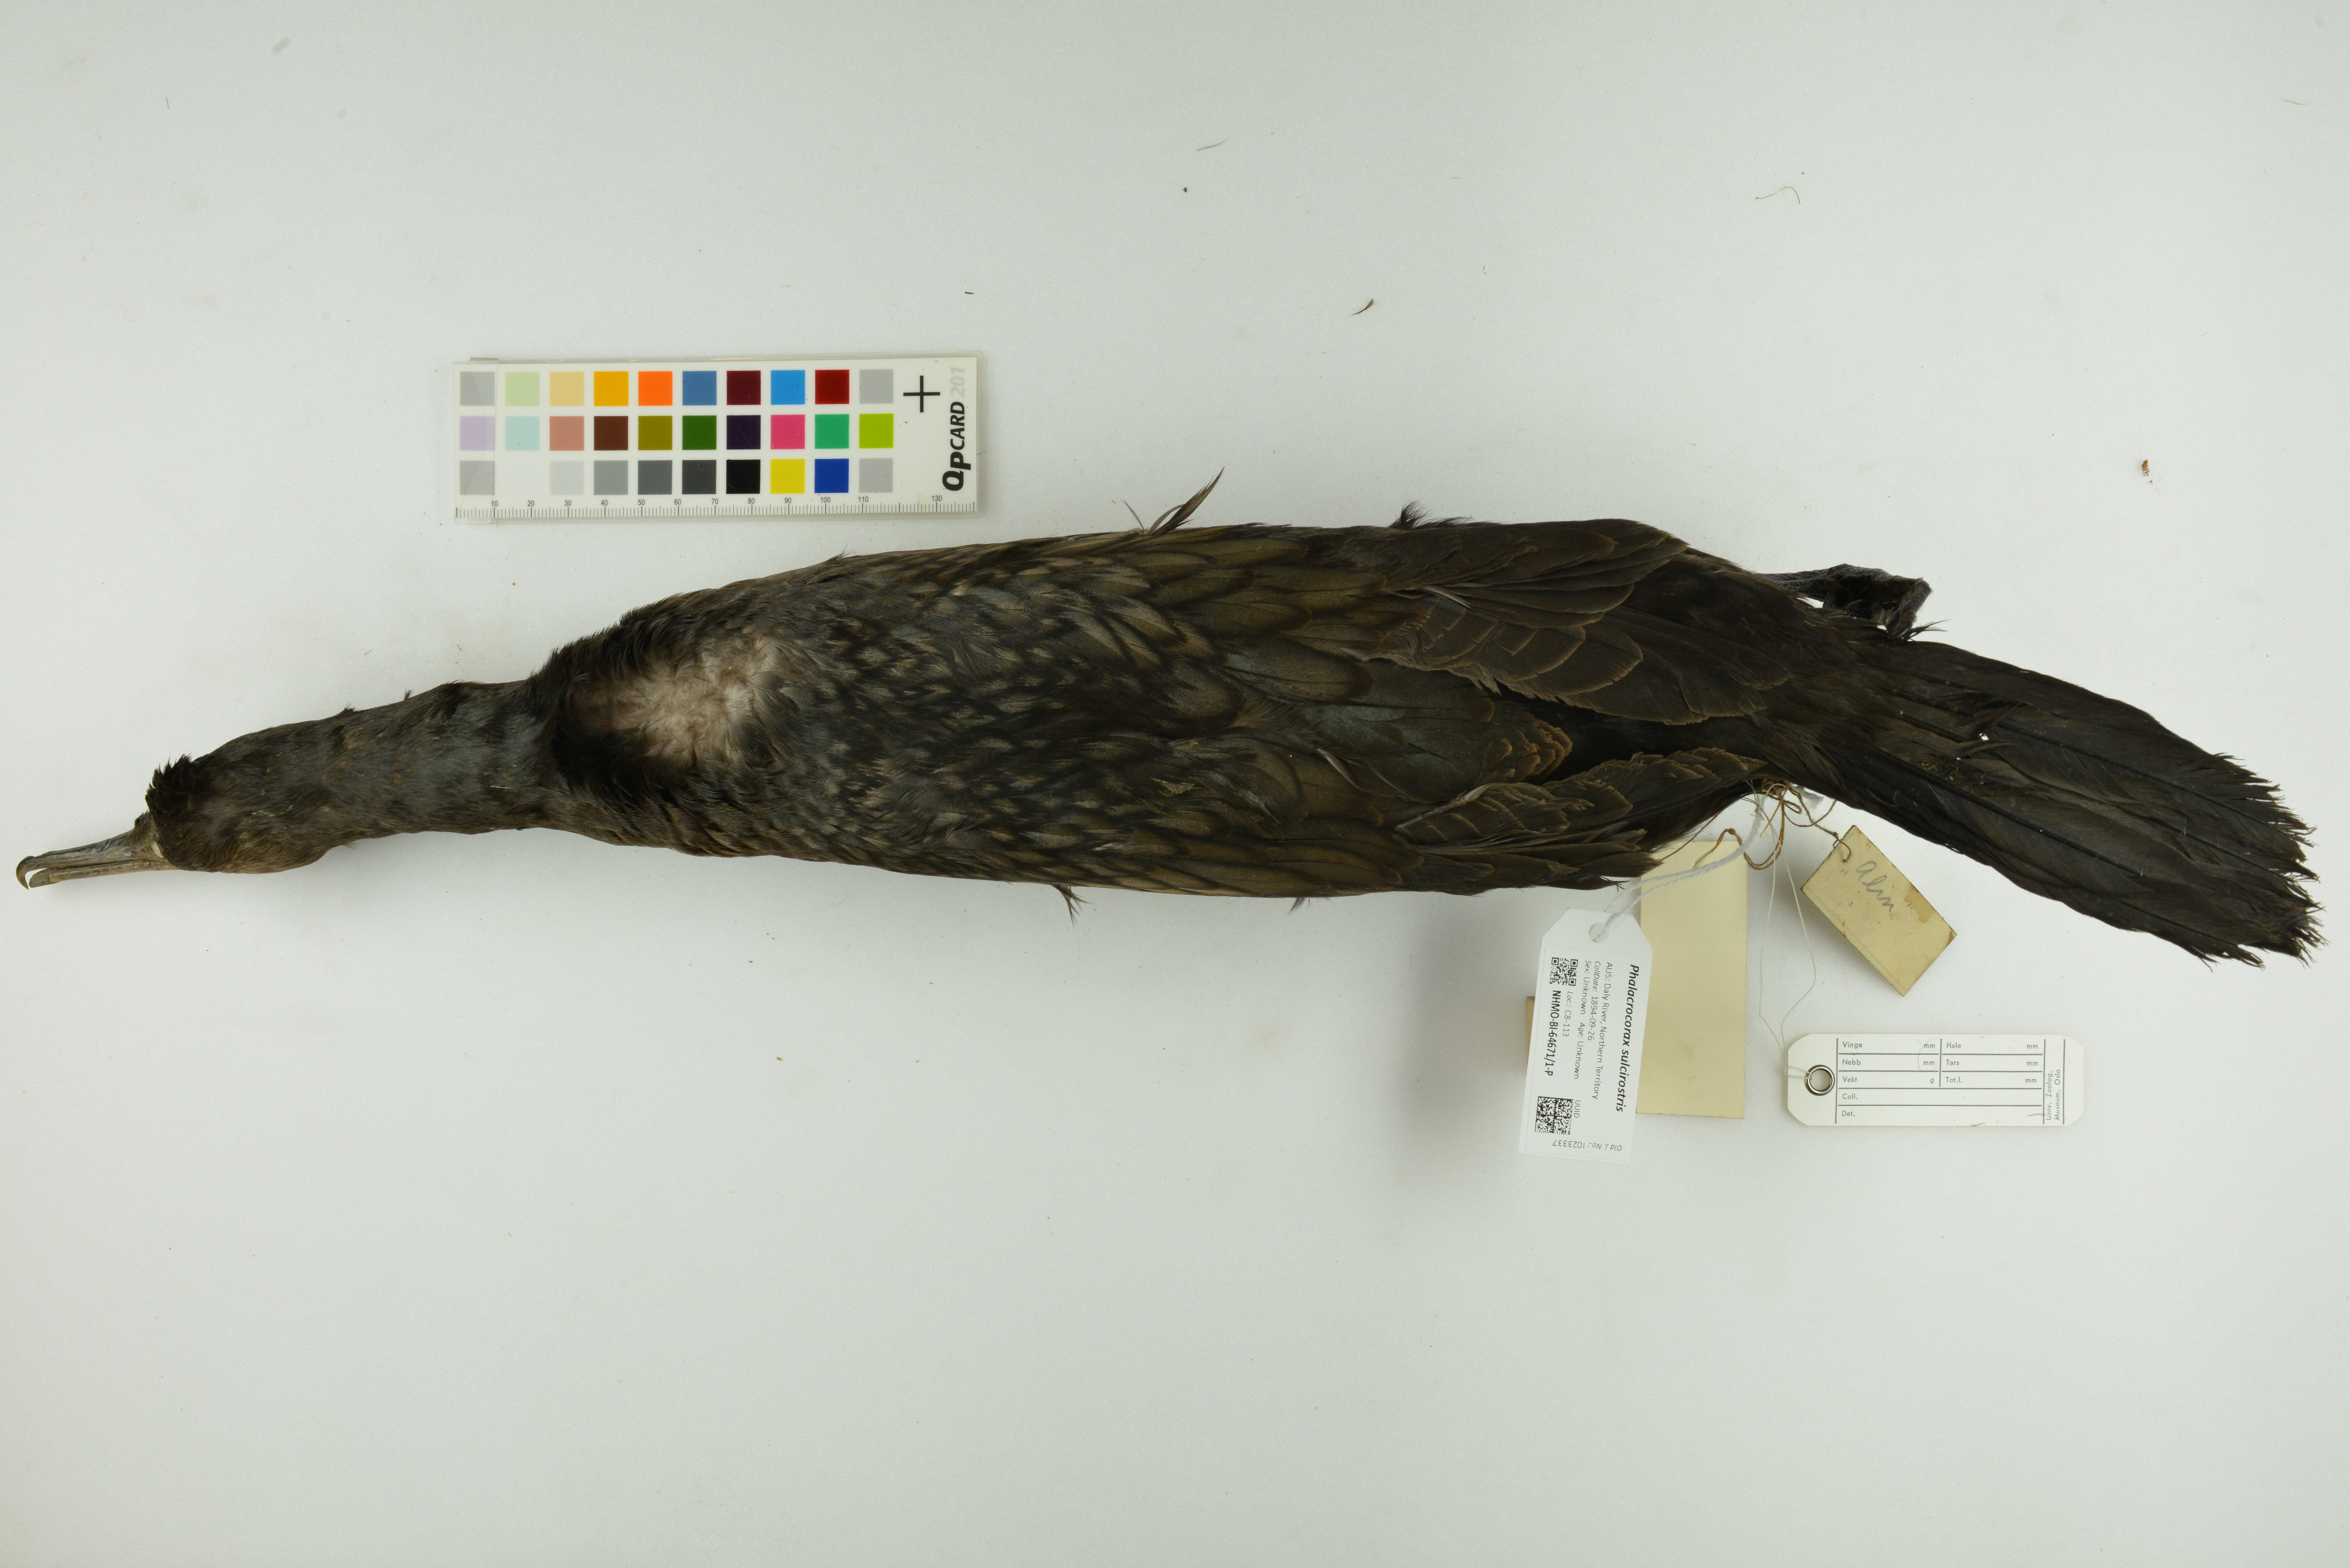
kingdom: Animalia
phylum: Chordata
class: Aves
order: Suliformes
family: Phalacrocoracidae
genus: Phalacrocorax
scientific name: Phalacrocorax sulcirostris
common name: Little black cormorant
